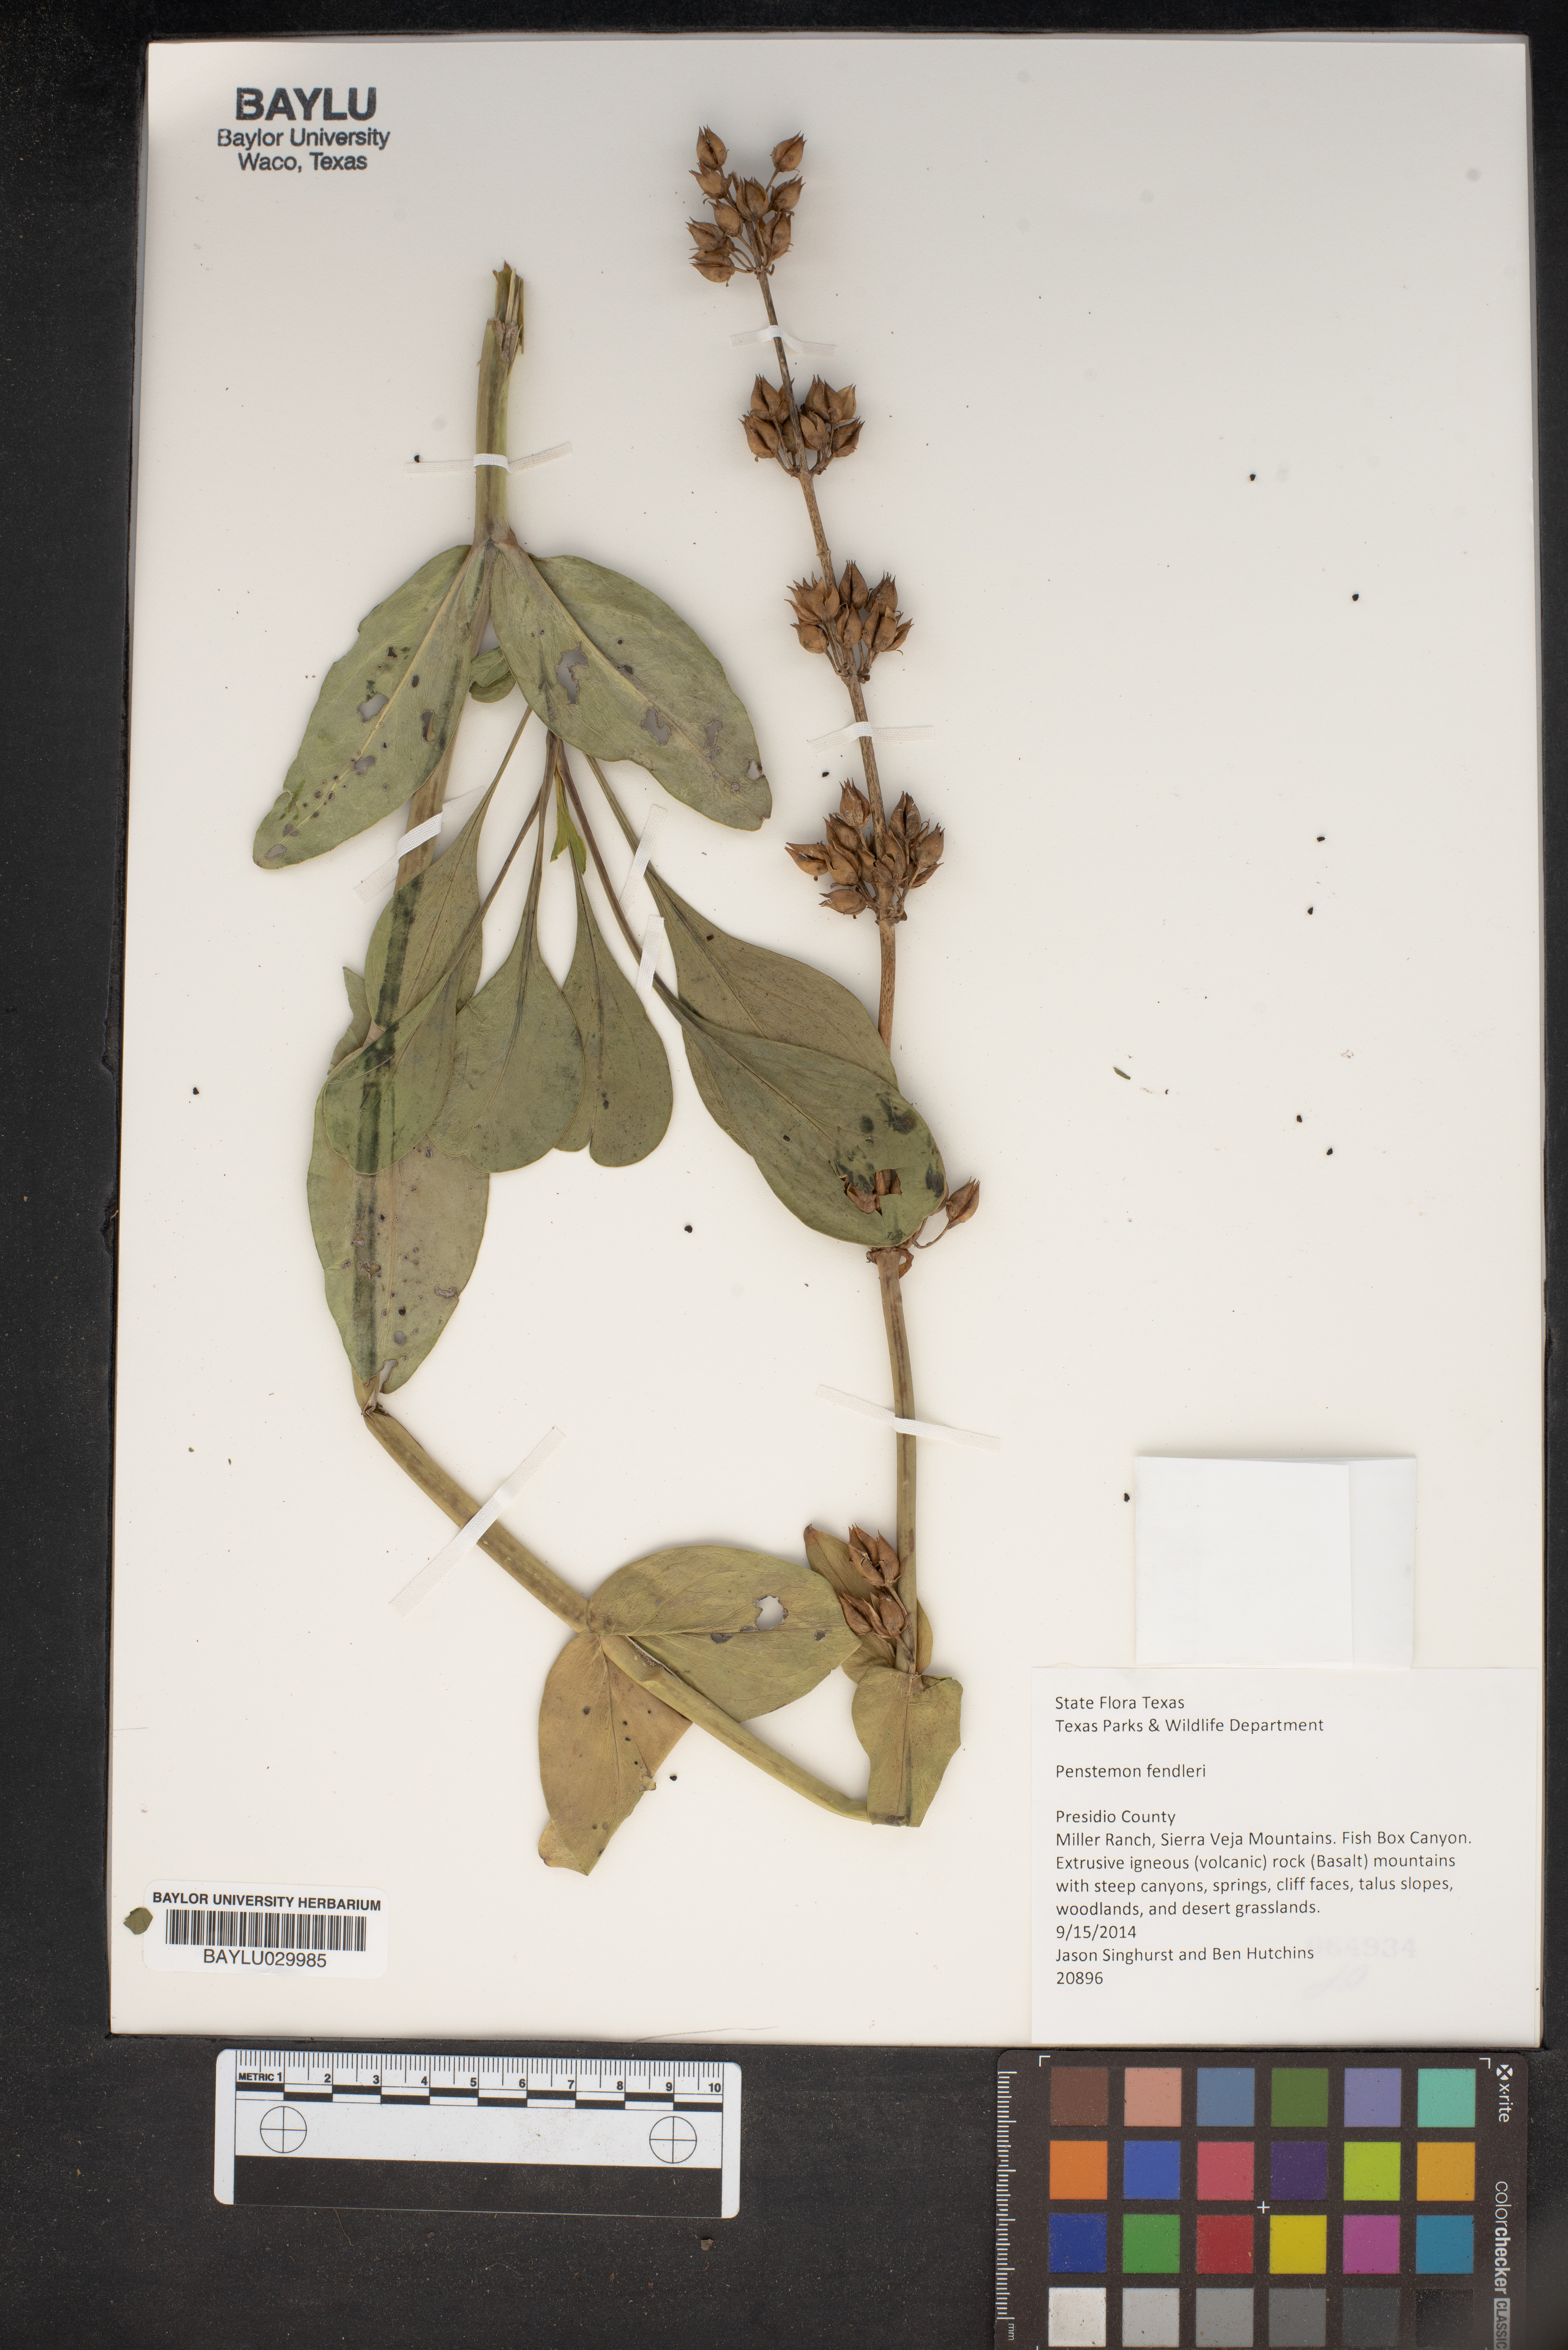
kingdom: Plantae
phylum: Tracheophyta
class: Magnoliopsida
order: Lamiales
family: Plantaginaceae
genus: Penstemon
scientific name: Penstemon fendleri
